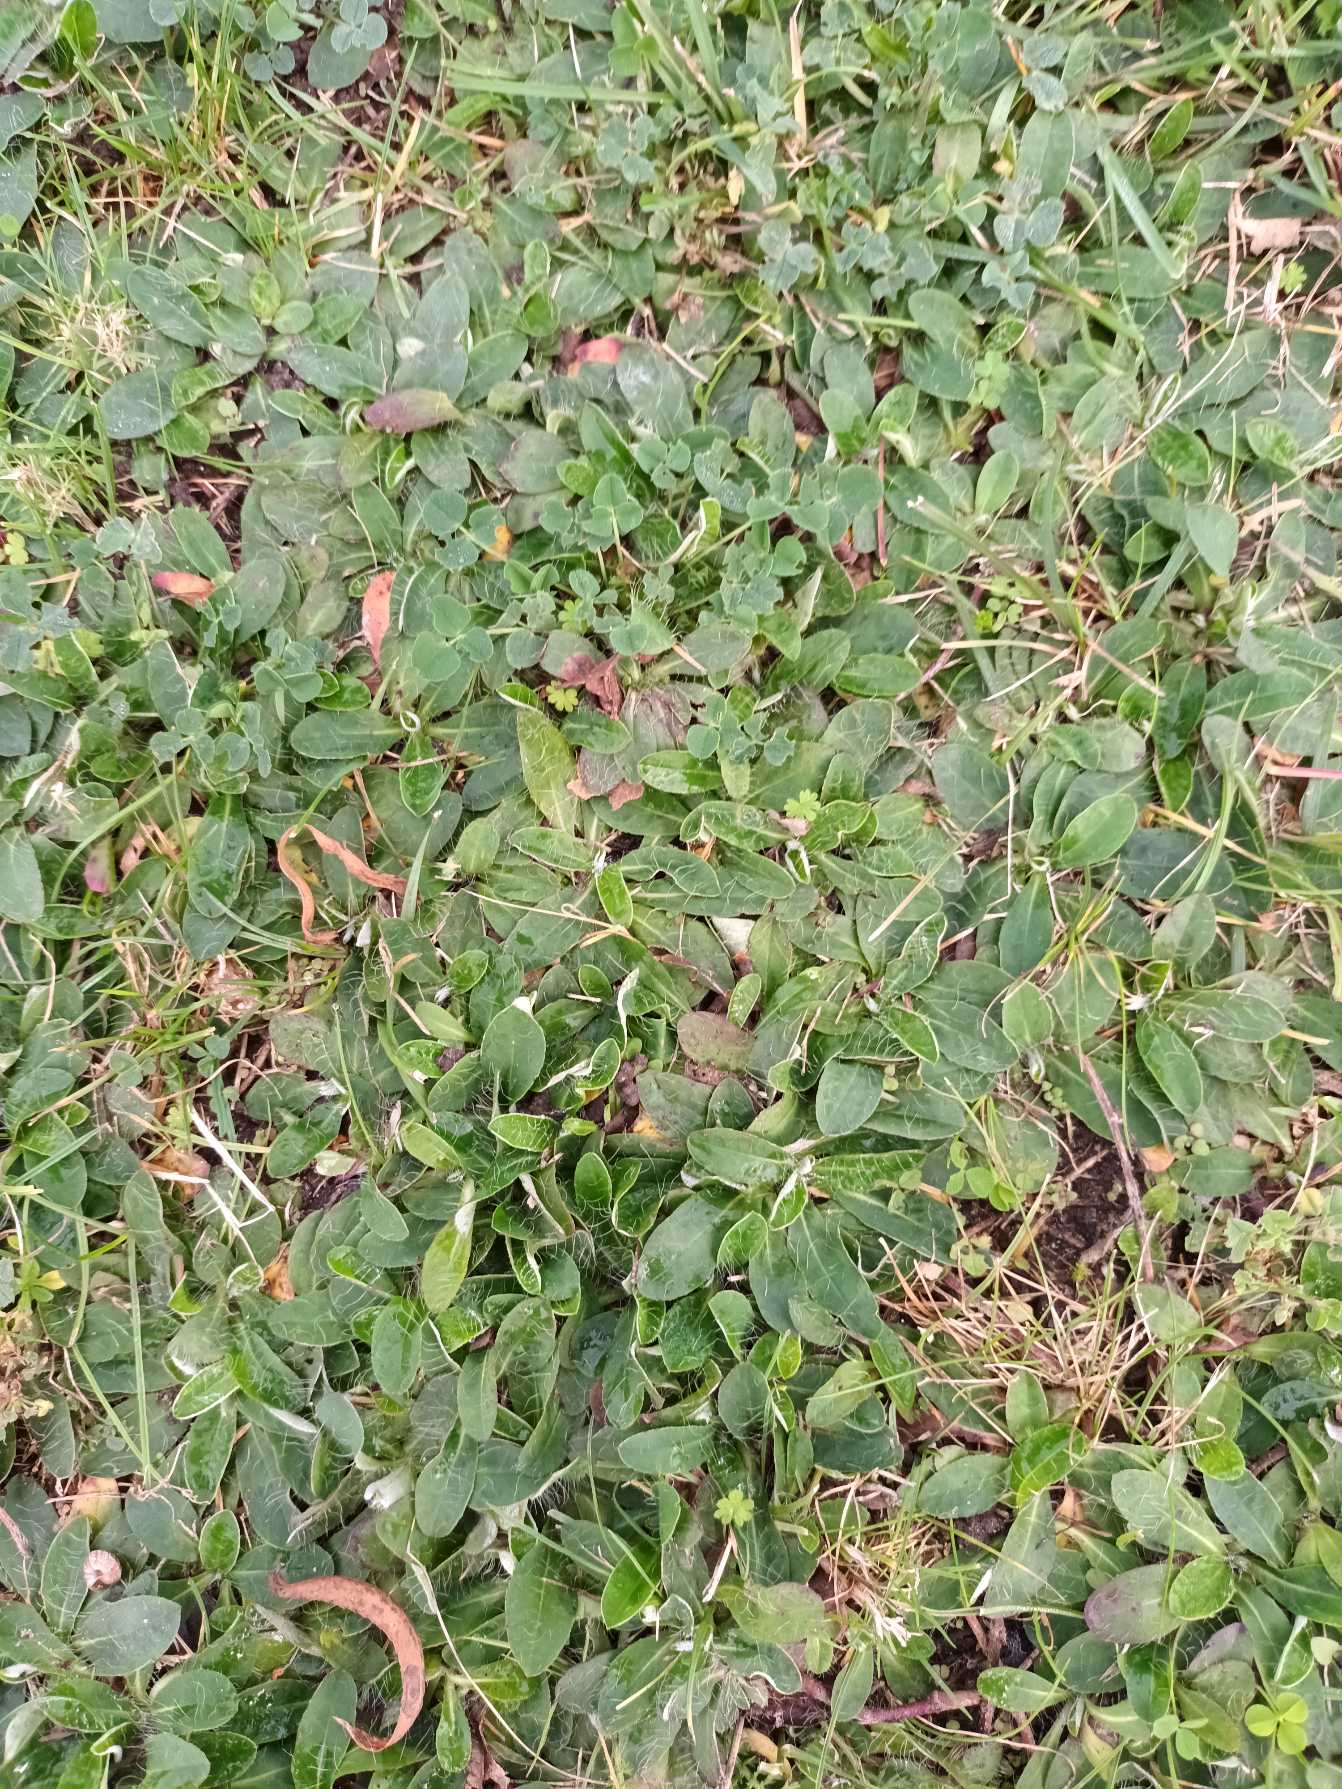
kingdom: Plantae
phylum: Tracheophyta
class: Magnoliopsida
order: Asterales
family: Asteraceae
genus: Pilosella
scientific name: Pilosella officinarum
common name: Håret høgeurt
